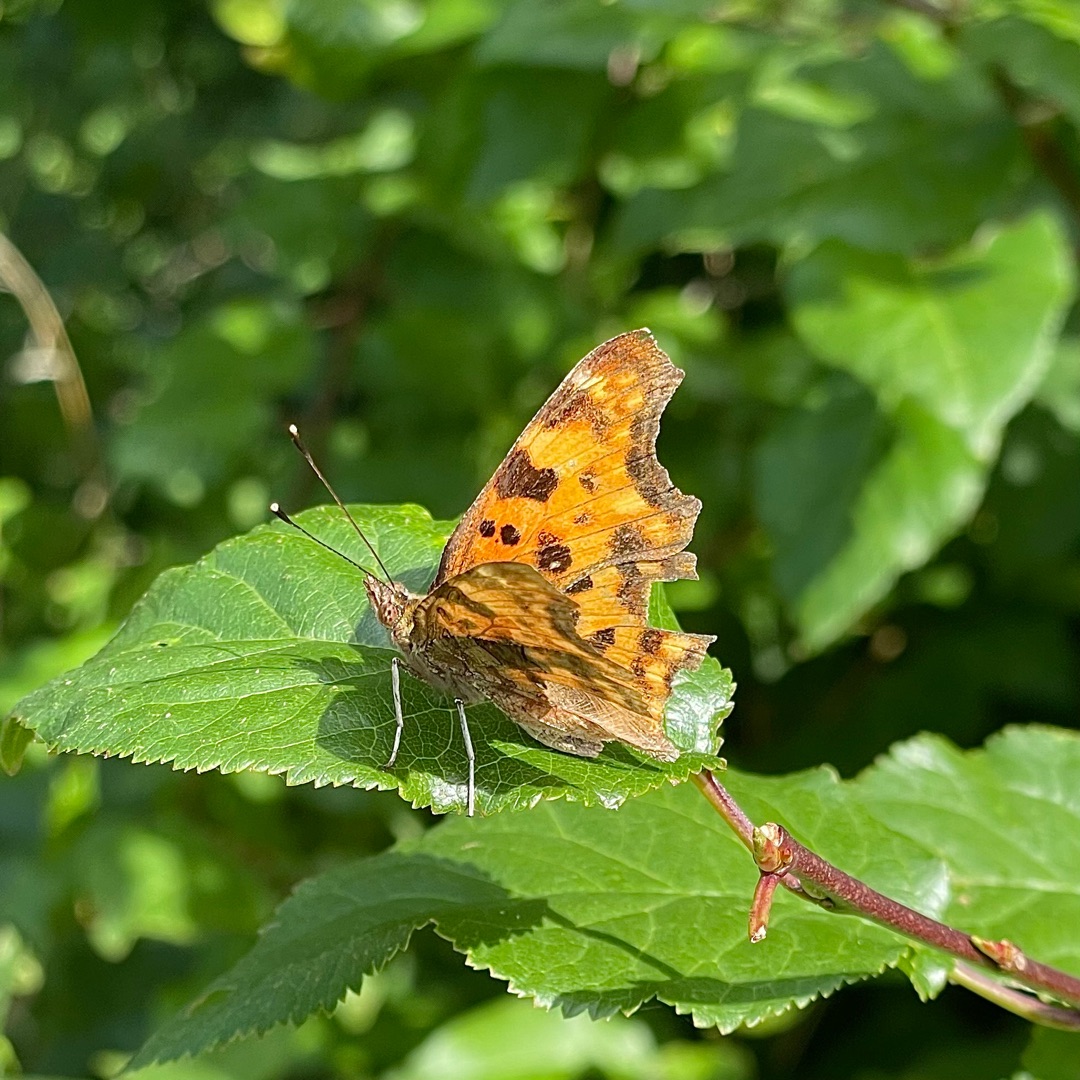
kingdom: Animalia
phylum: Arthropoda
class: Insecta
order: Lepidoptera
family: Nymphalidae
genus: Polygonia
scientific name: Polygonia c-album
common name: Det hvide C
